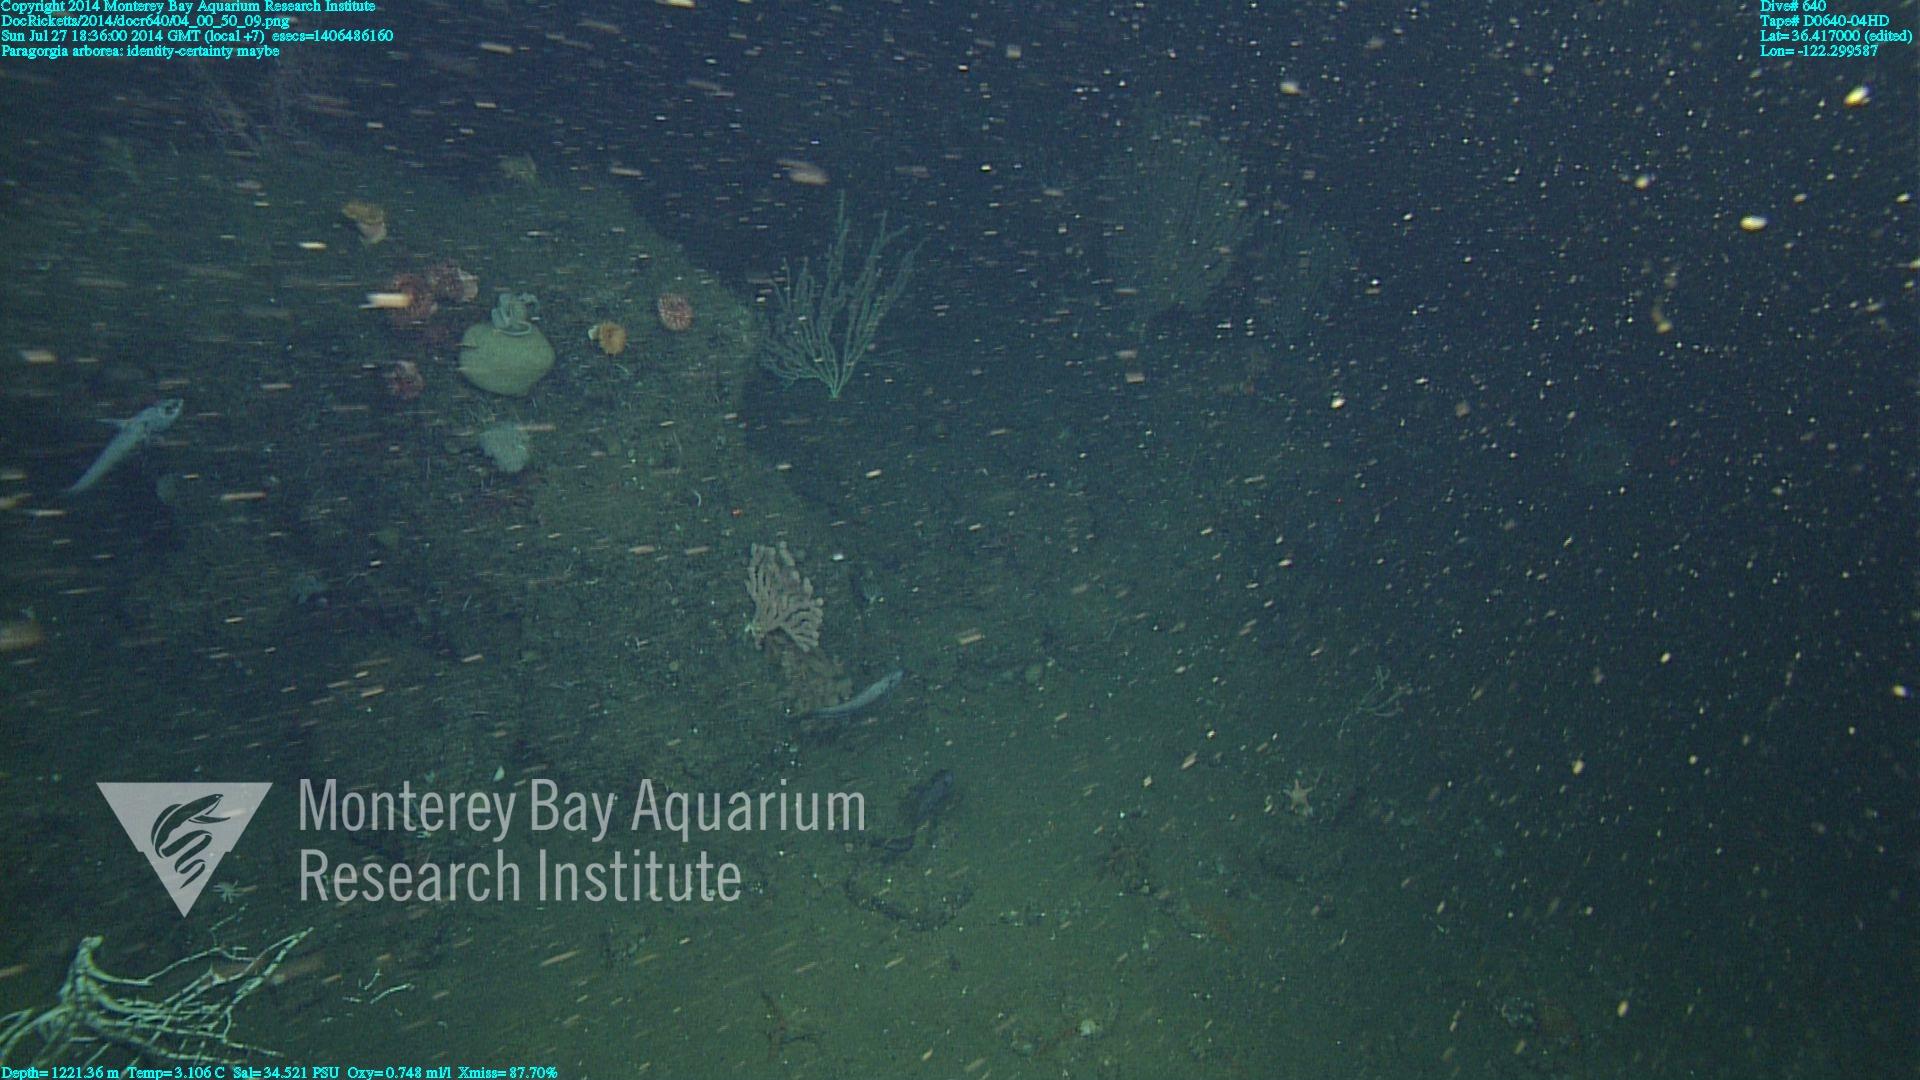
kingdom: Animalia
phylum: Cnidaria
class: Anthozoa
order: Scleralcyonacea
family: Coralliidae
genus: Paragorgia
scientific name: Paragorgia arborea
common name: Bubble gum coral
